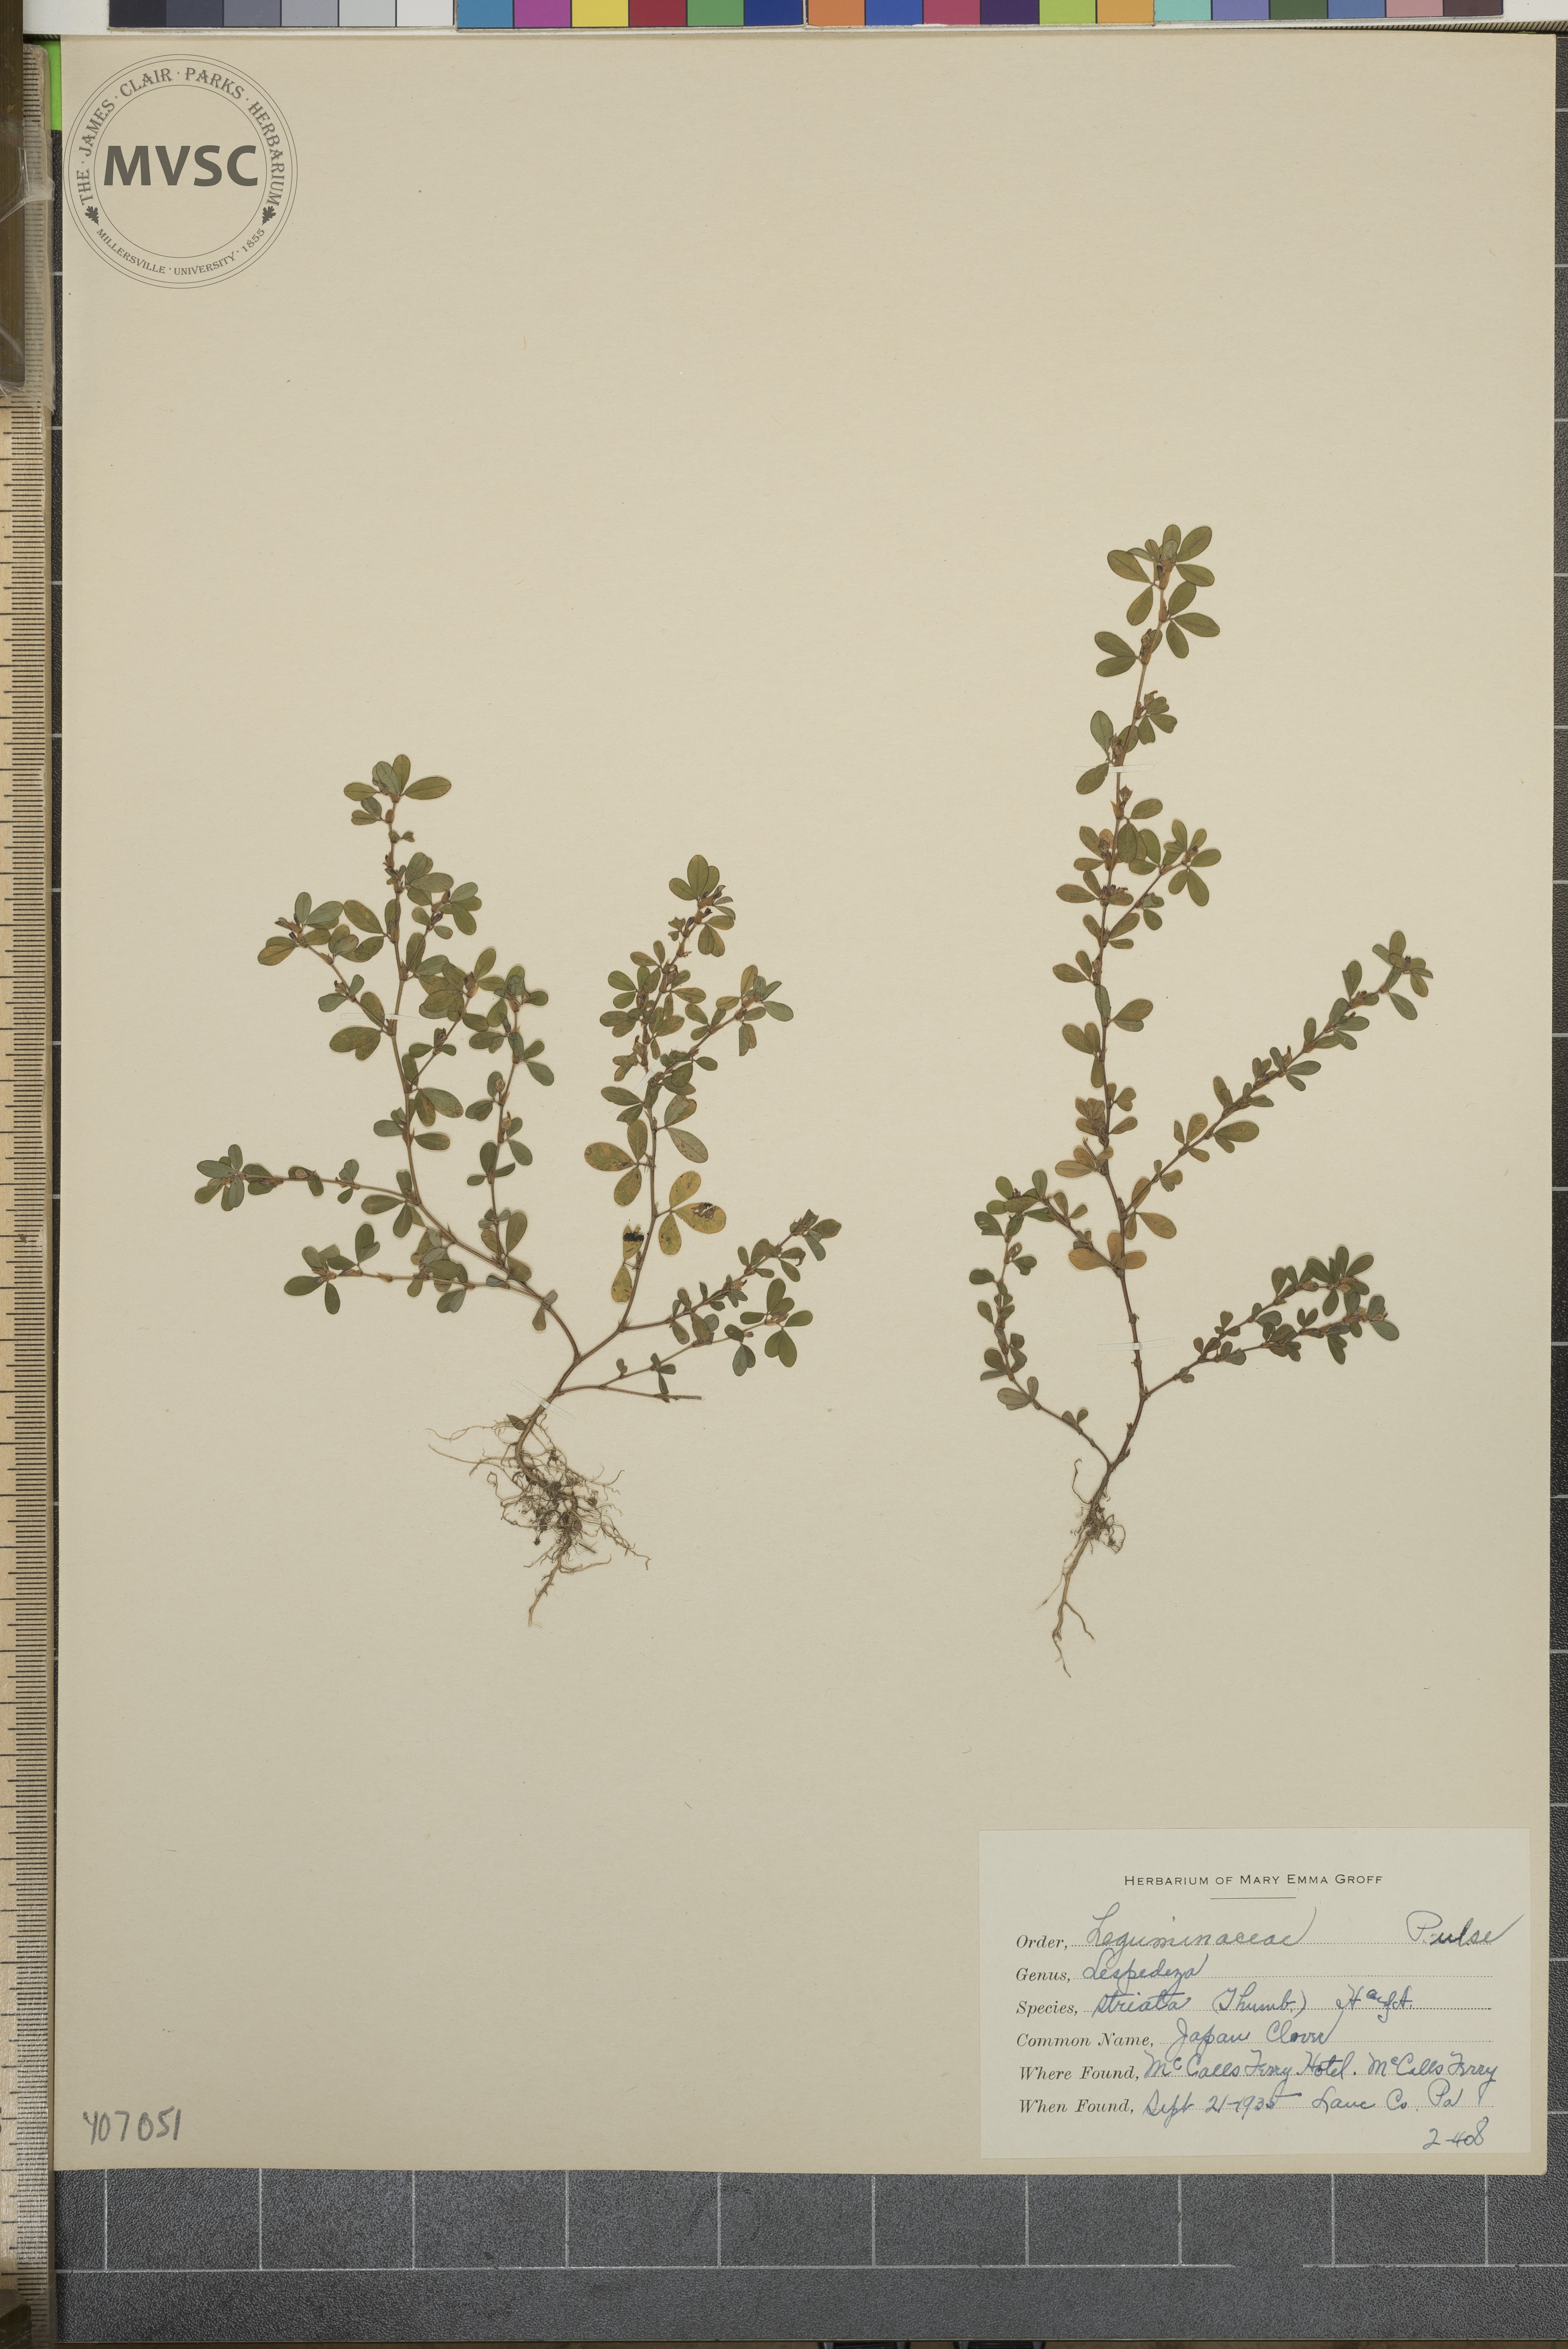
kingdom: Plantae
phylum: Tracheophyta
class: Magnoliopsida
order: Fabales
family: Fabaceae
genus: Kummerowia
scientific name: Kummerowia striata
